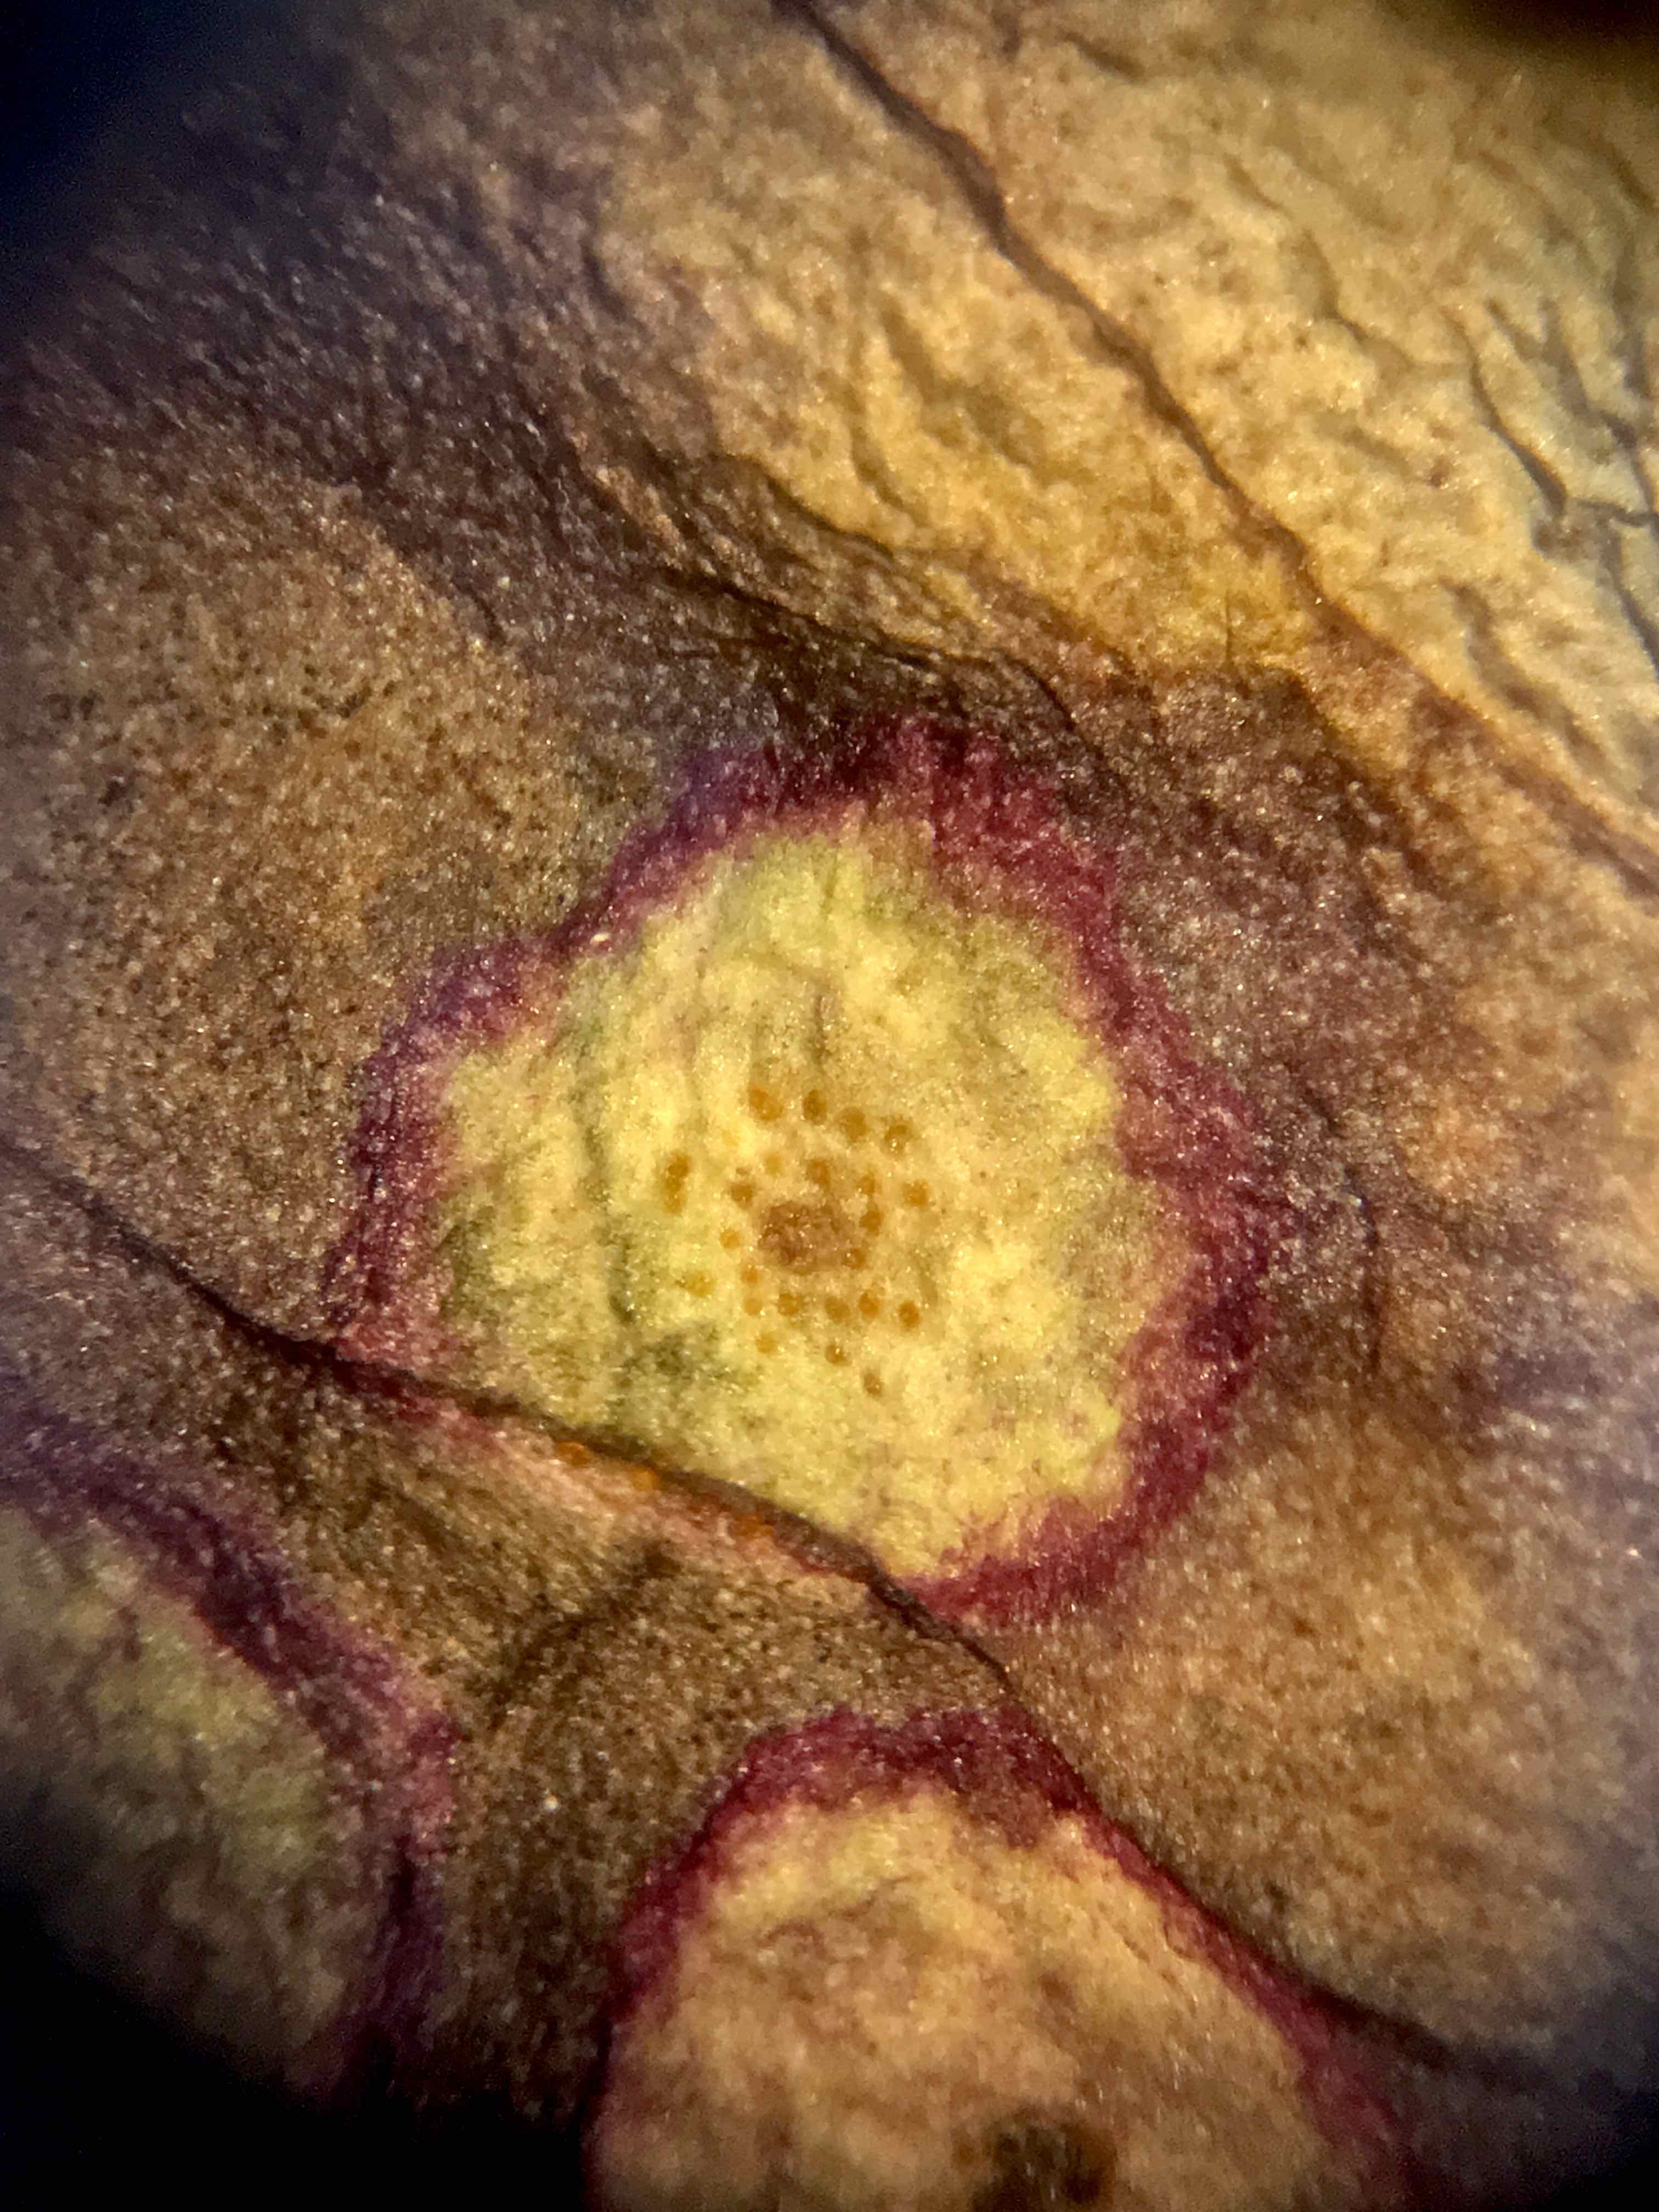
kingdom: Fungi
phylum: Basidiomycota
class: Pucciniomycetes
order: Pucciniales
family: Pucciniaceae
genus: Puccinia
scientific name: Puccinia poarum
